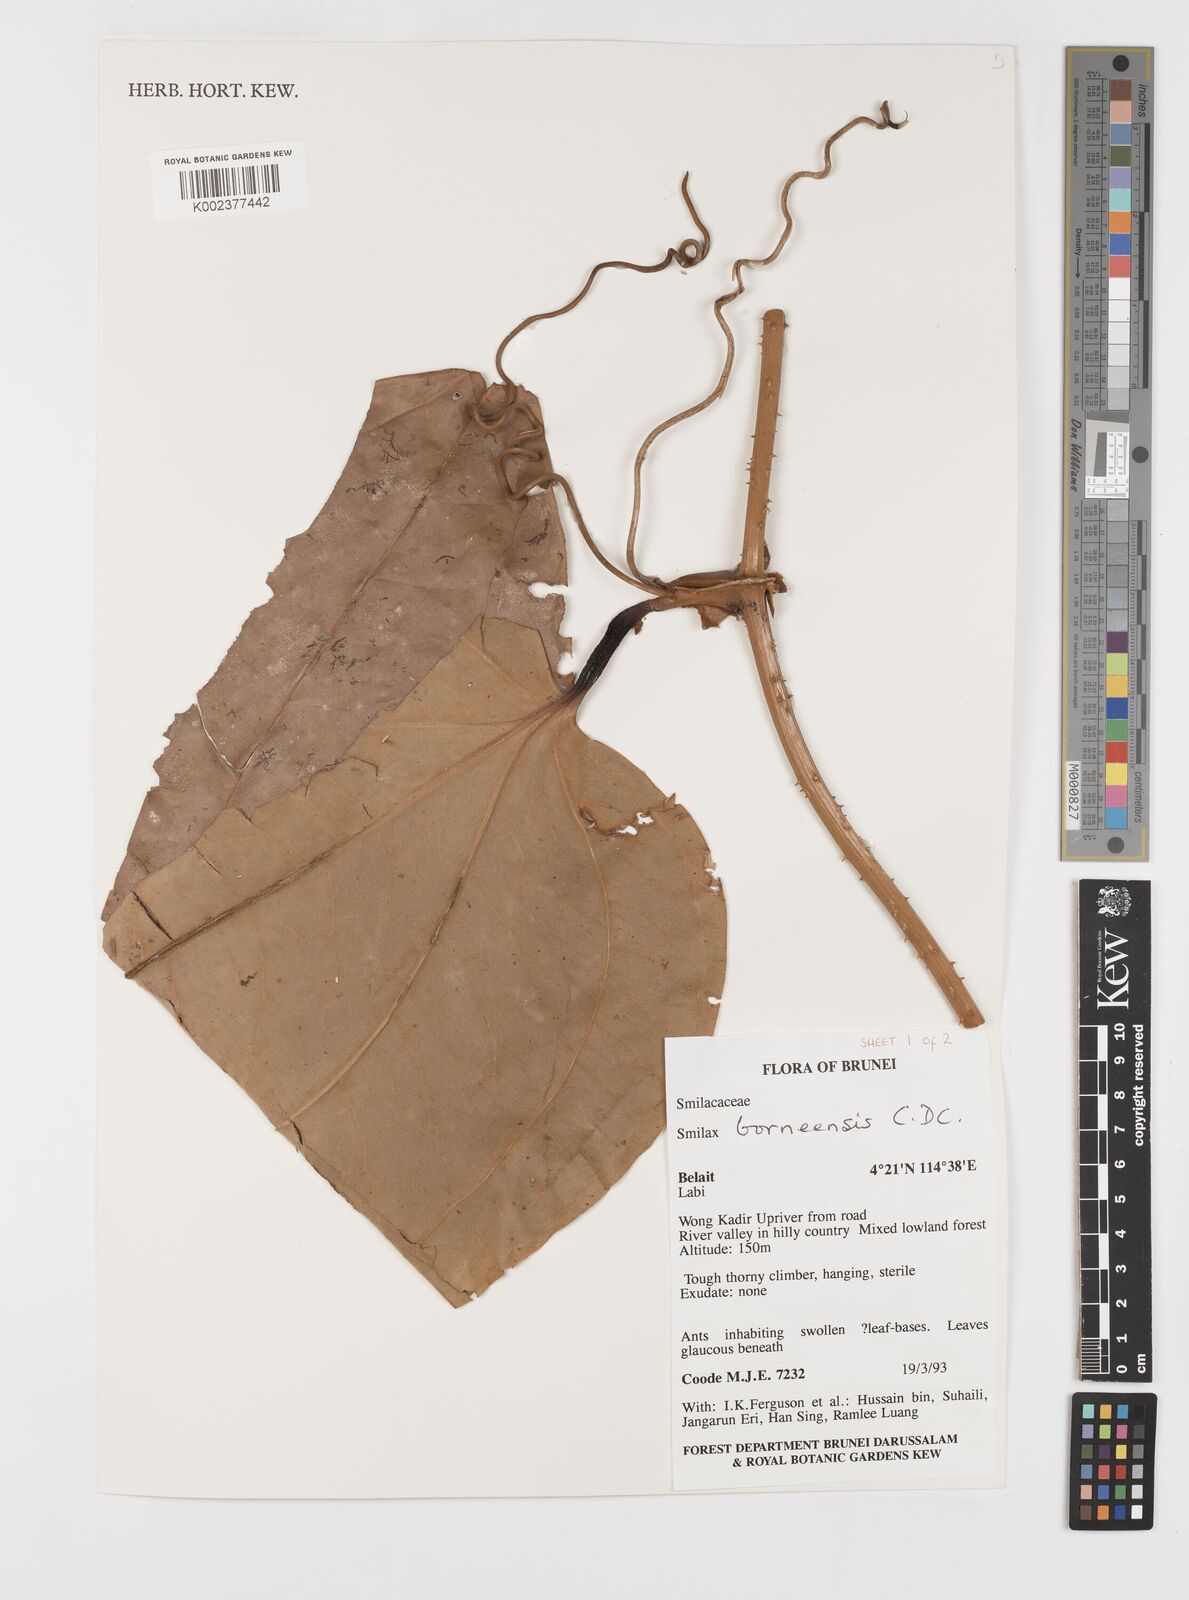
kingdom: Plantae
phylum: Tracheophyta
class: Liliopsida
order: Liliales
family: Smilacaceae
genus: Smilax
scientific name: Smilax borneensis
